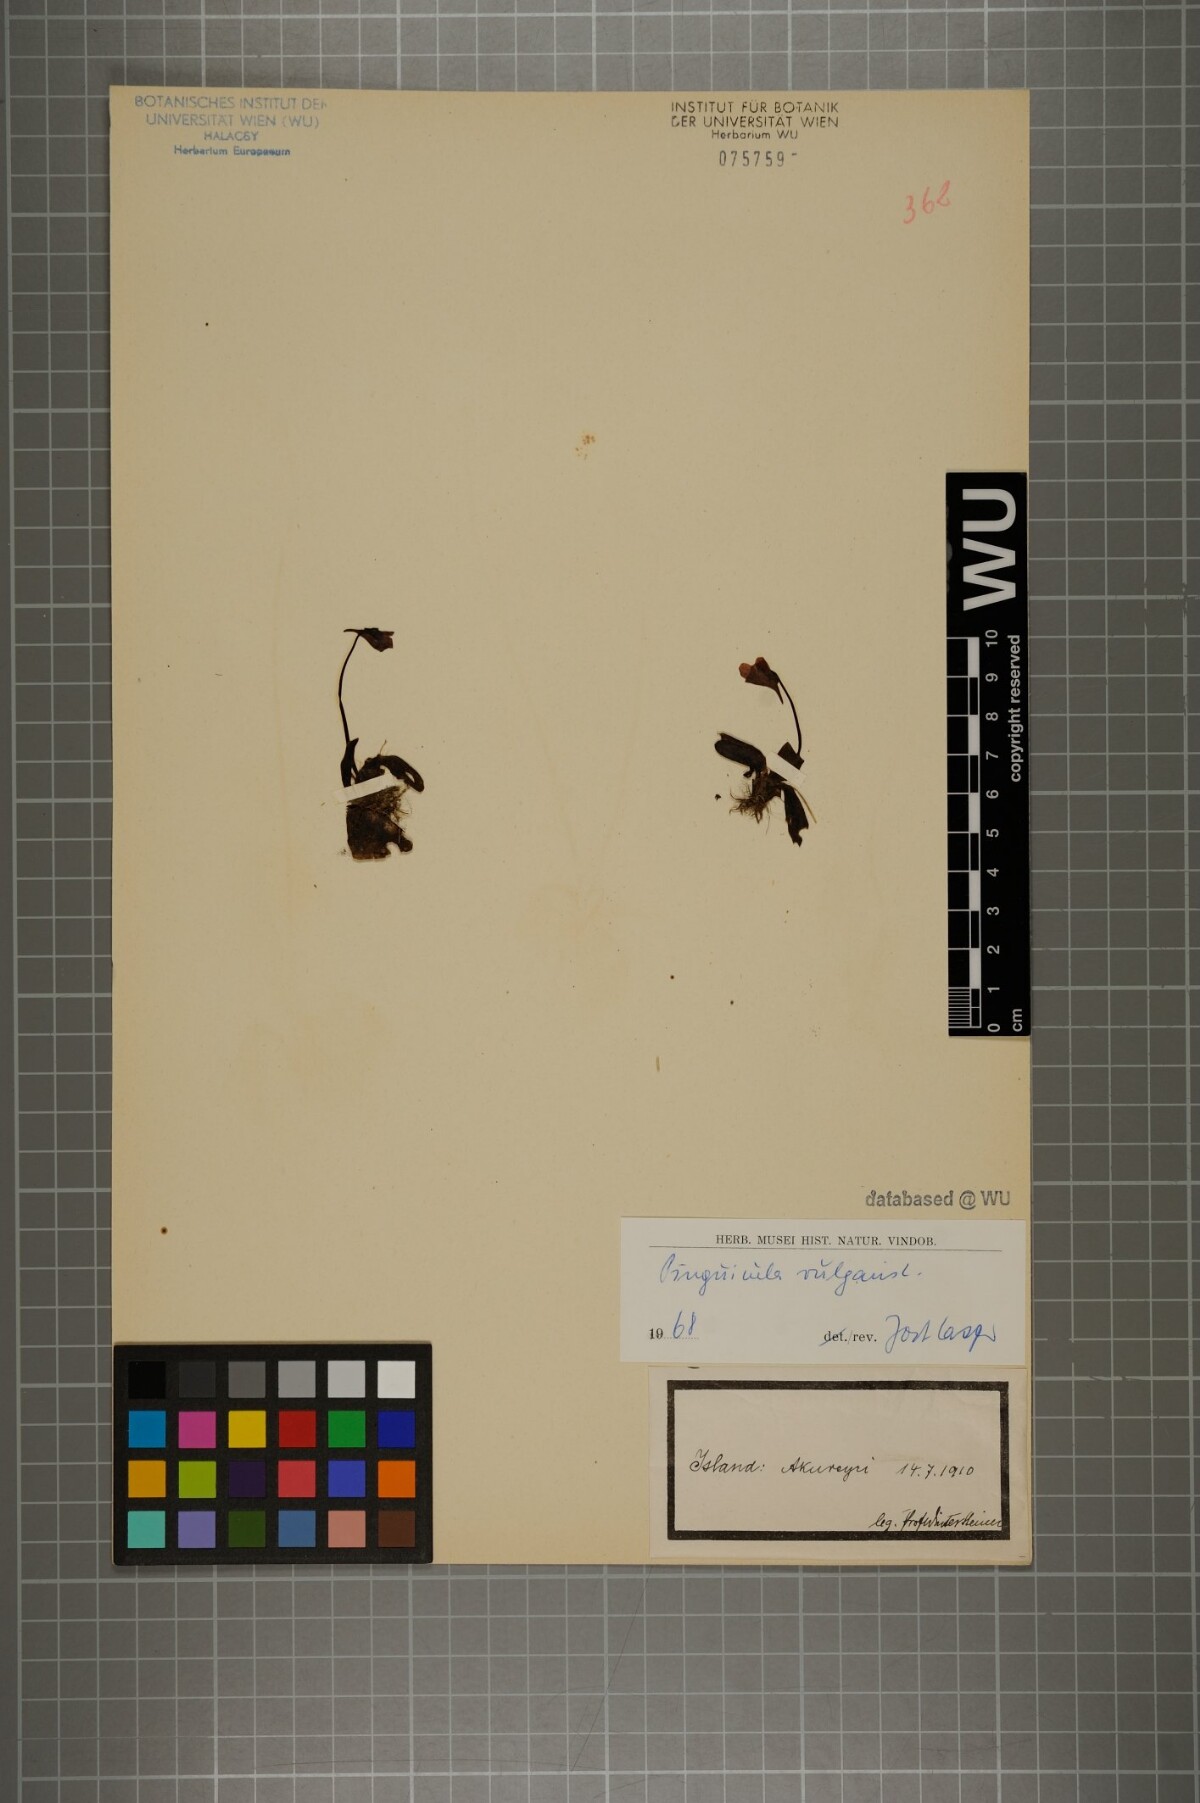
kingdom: Plantae
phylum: Tracheophyta
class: Magnoliopsida
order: Lamiales
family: Lentibulariaceae
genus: Pinguicula
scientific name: Pinguicula vulgaris
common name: Common butterwort
